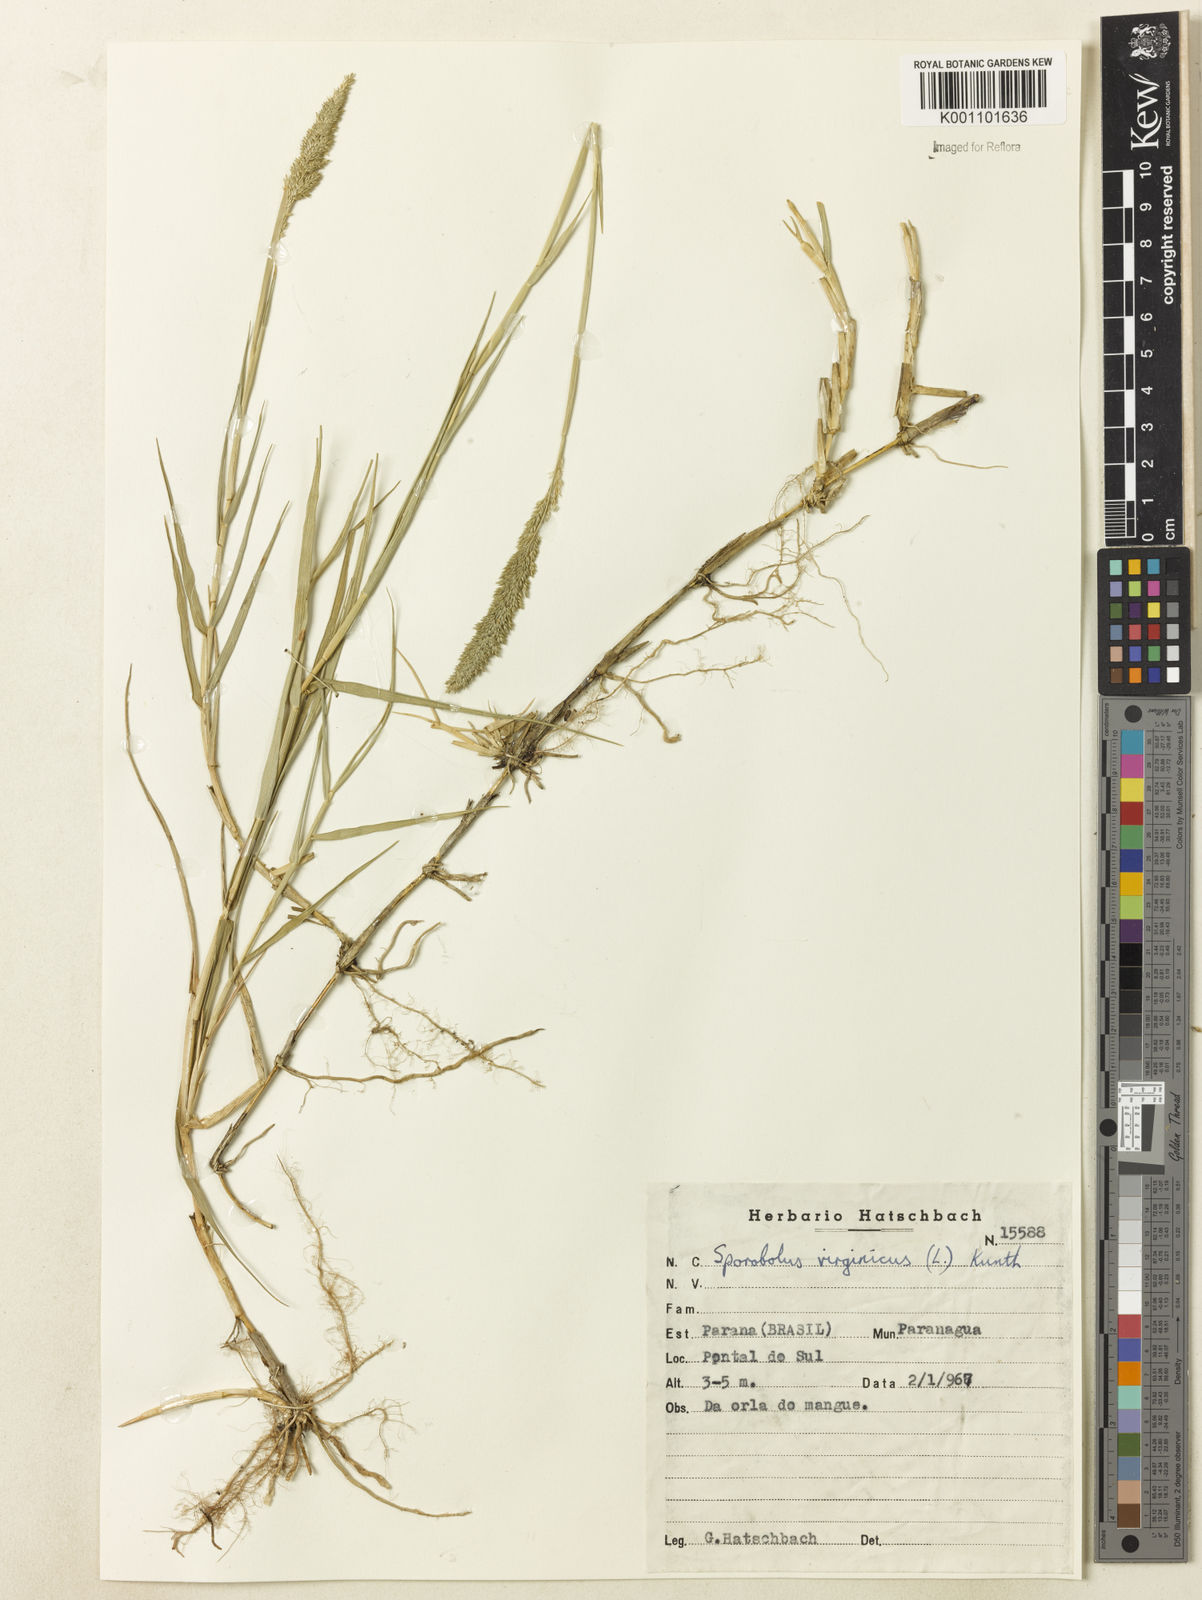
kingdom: Plantae
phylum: Tracheophyta
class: Liliopsida
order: Poales
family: Poaceae
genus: Sporobolus
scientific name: Sporobolus virginicus
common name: Beach dropseed
